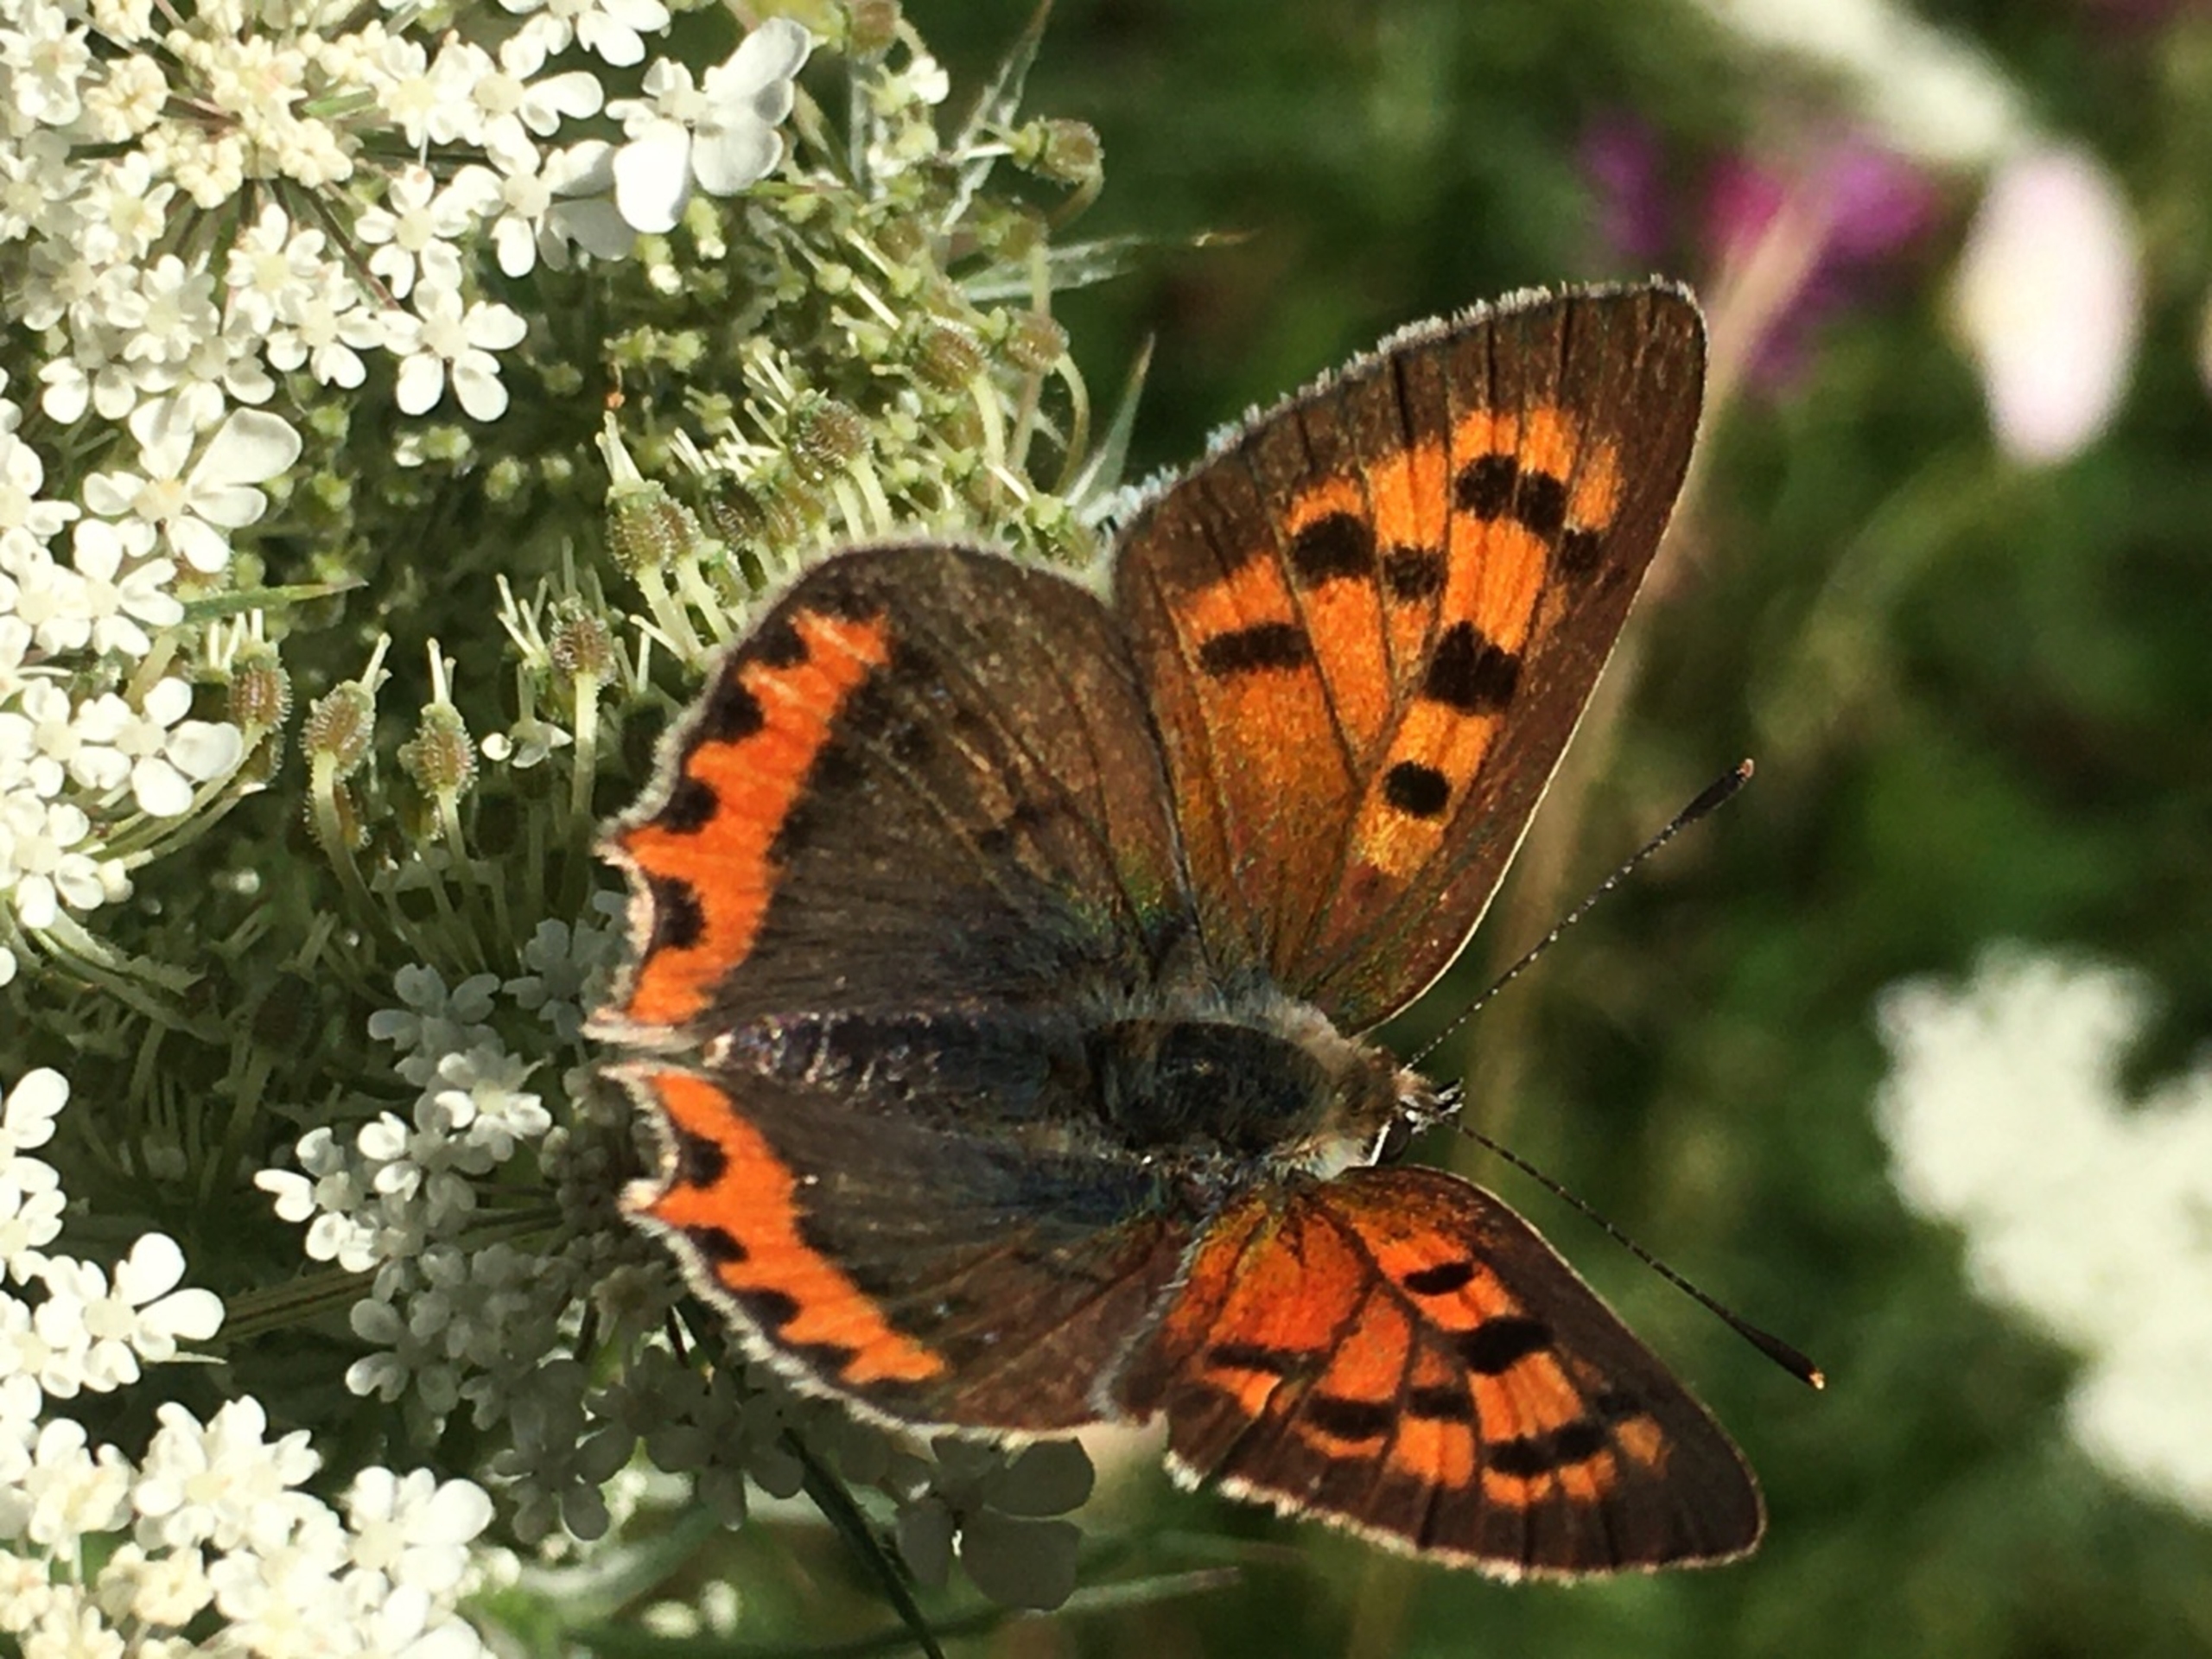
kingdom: Animalia
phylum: Arthropoda
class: Insecta
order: Lepidoptera
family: Lycaenidae
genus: Lycaena
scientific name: Lycaena phlaeas
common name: Lille ildfugl
